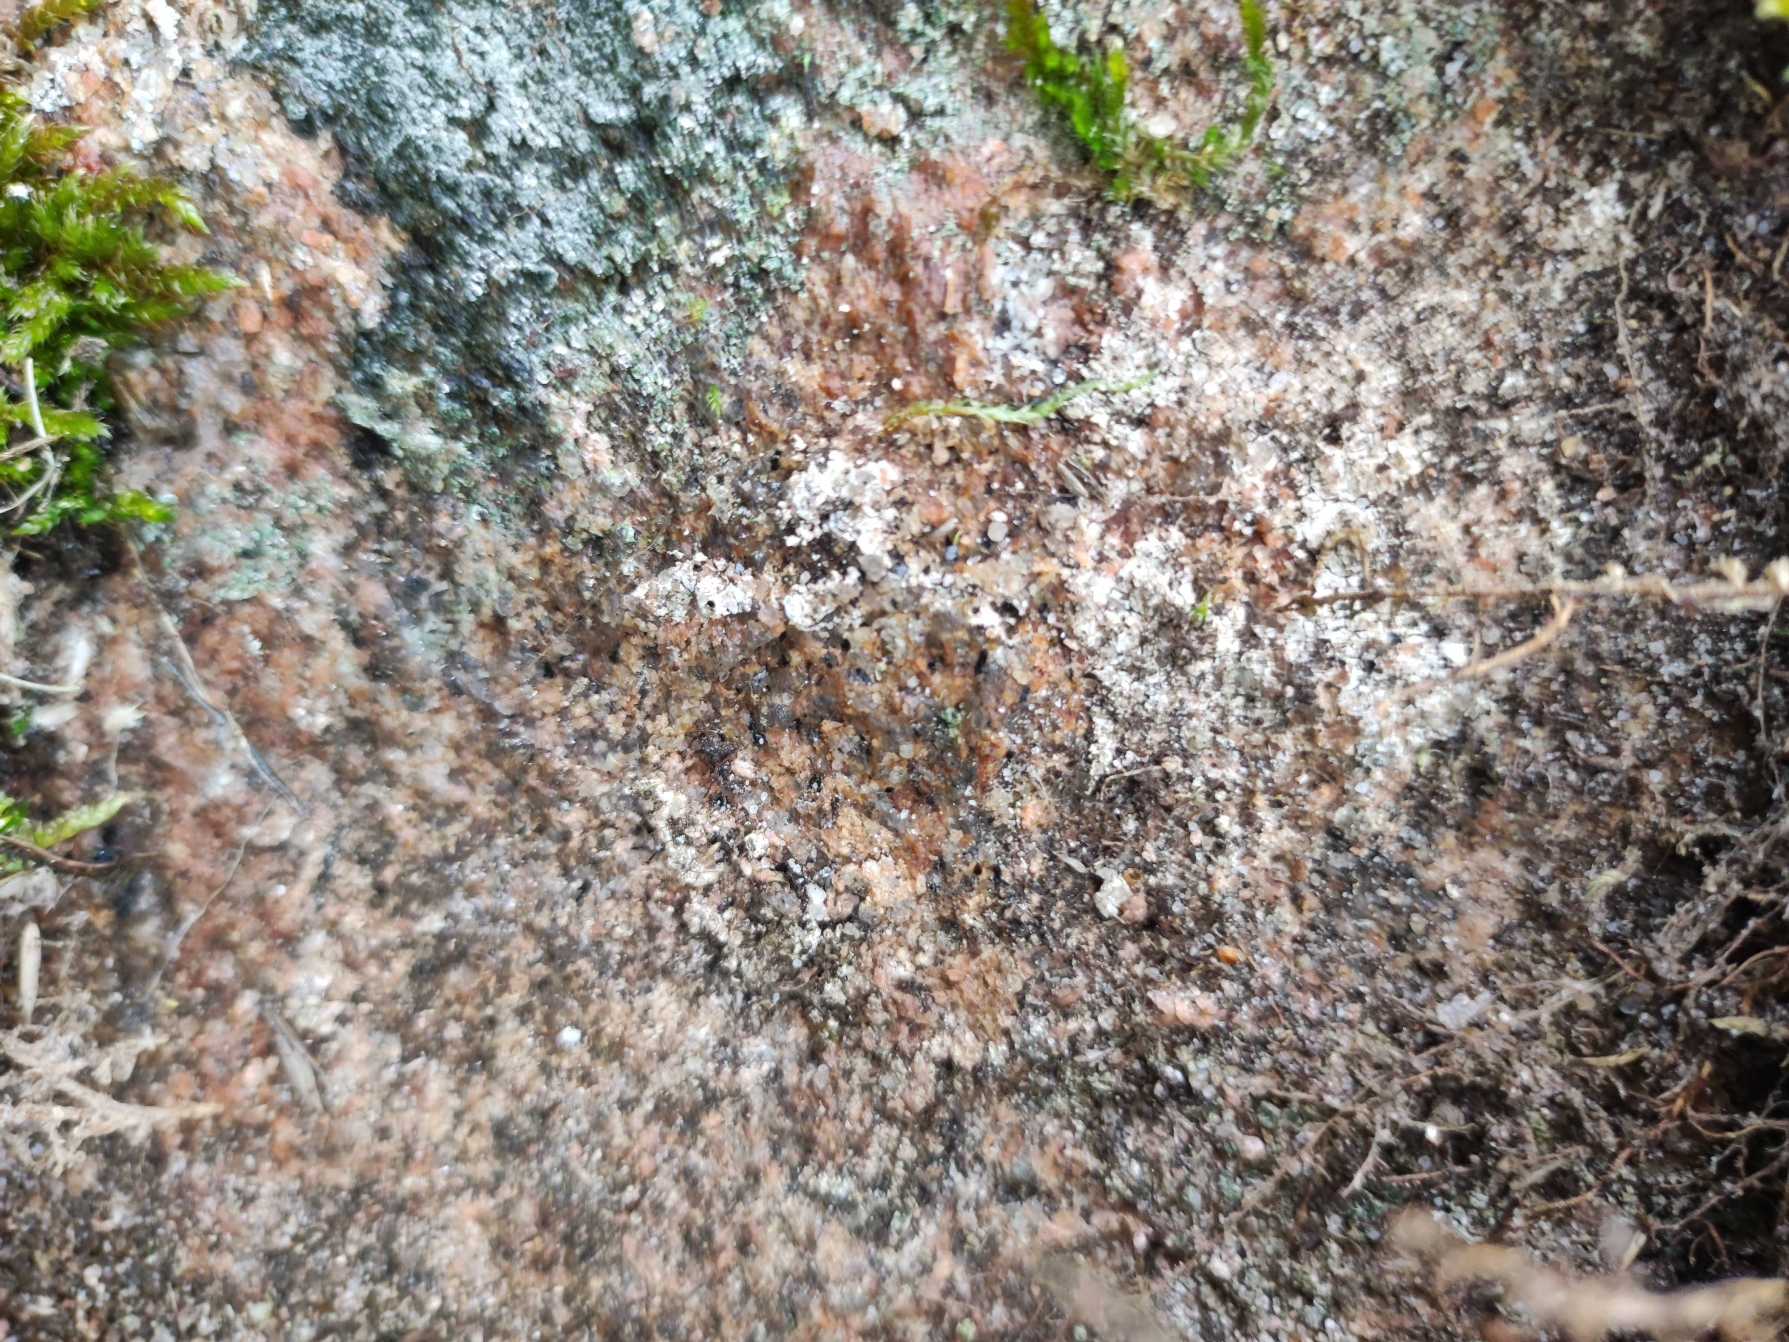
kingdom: Fungi
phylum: Ascomycota
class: Lecanoromycetes
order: Lecanorales
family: Lecanoraceae
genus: Glaucomaria
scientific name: Glaucomaria rupicola
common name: Stengærde-kantskivelav
